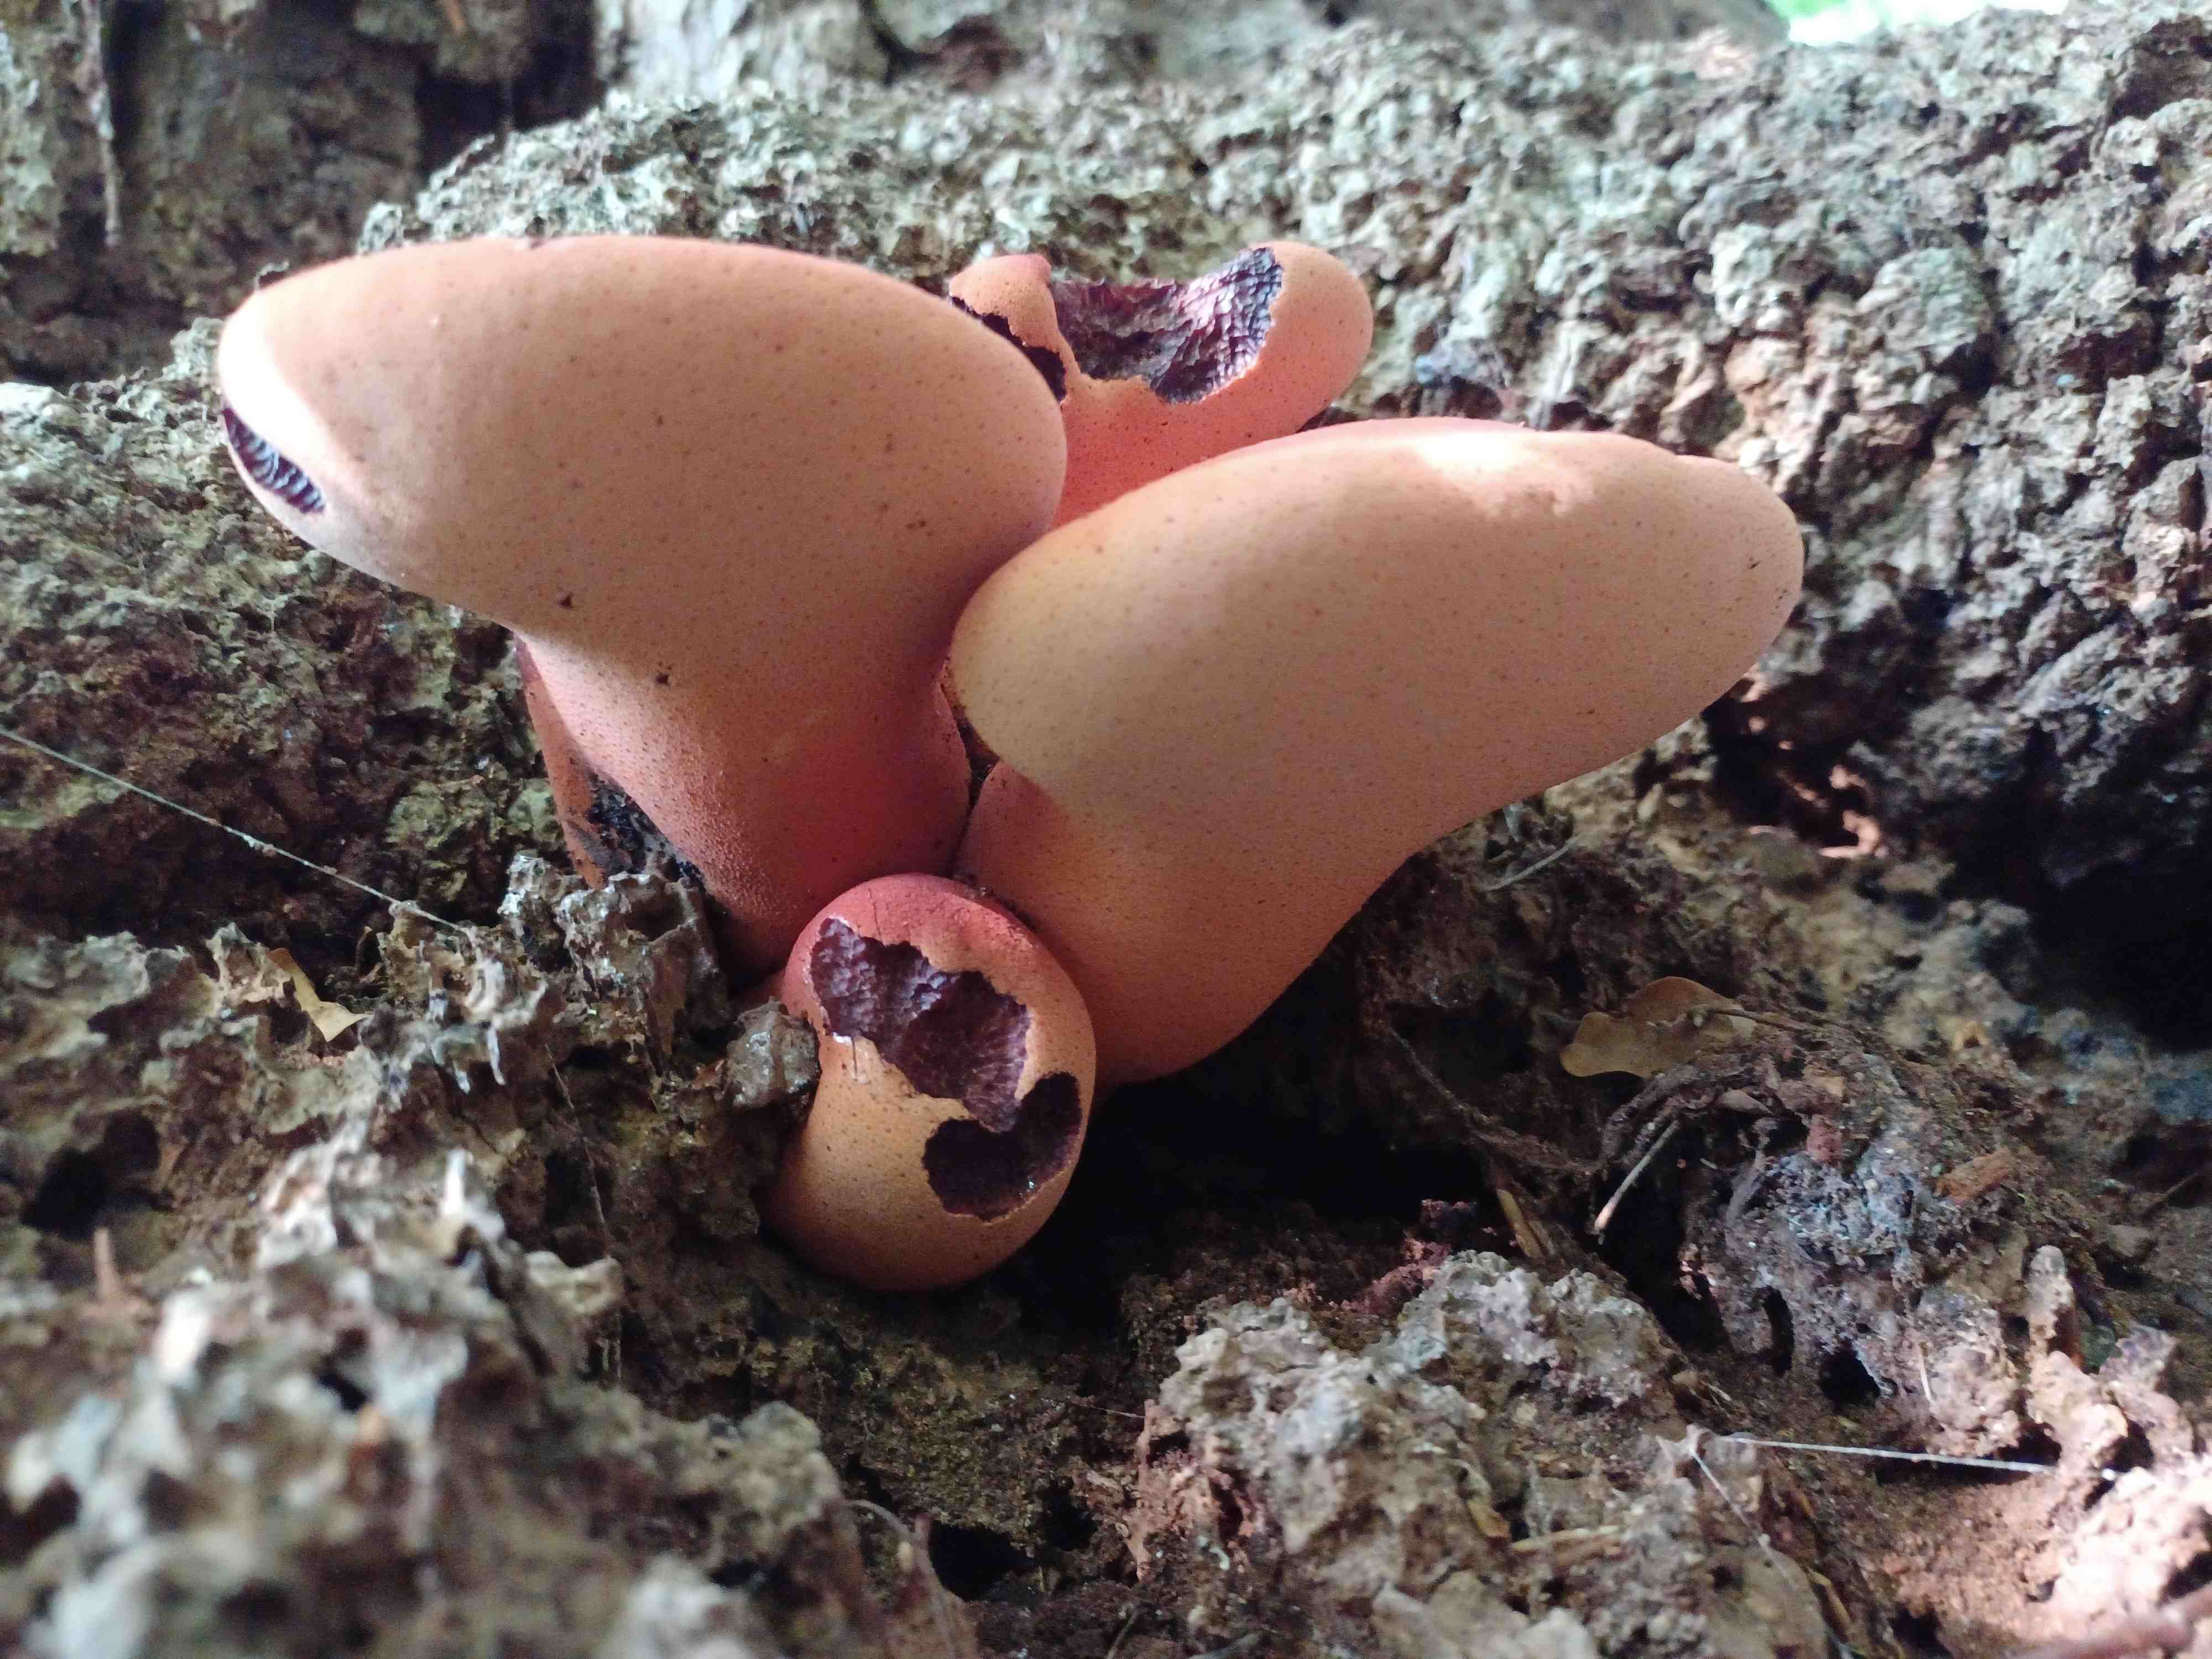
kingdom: Fungi
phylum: Basidiomycota
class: Agaricomycetes
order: Agaricales
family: Fistulinaceae
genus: Fistulina
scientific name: Fistulina hepatica
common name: oksetunge
